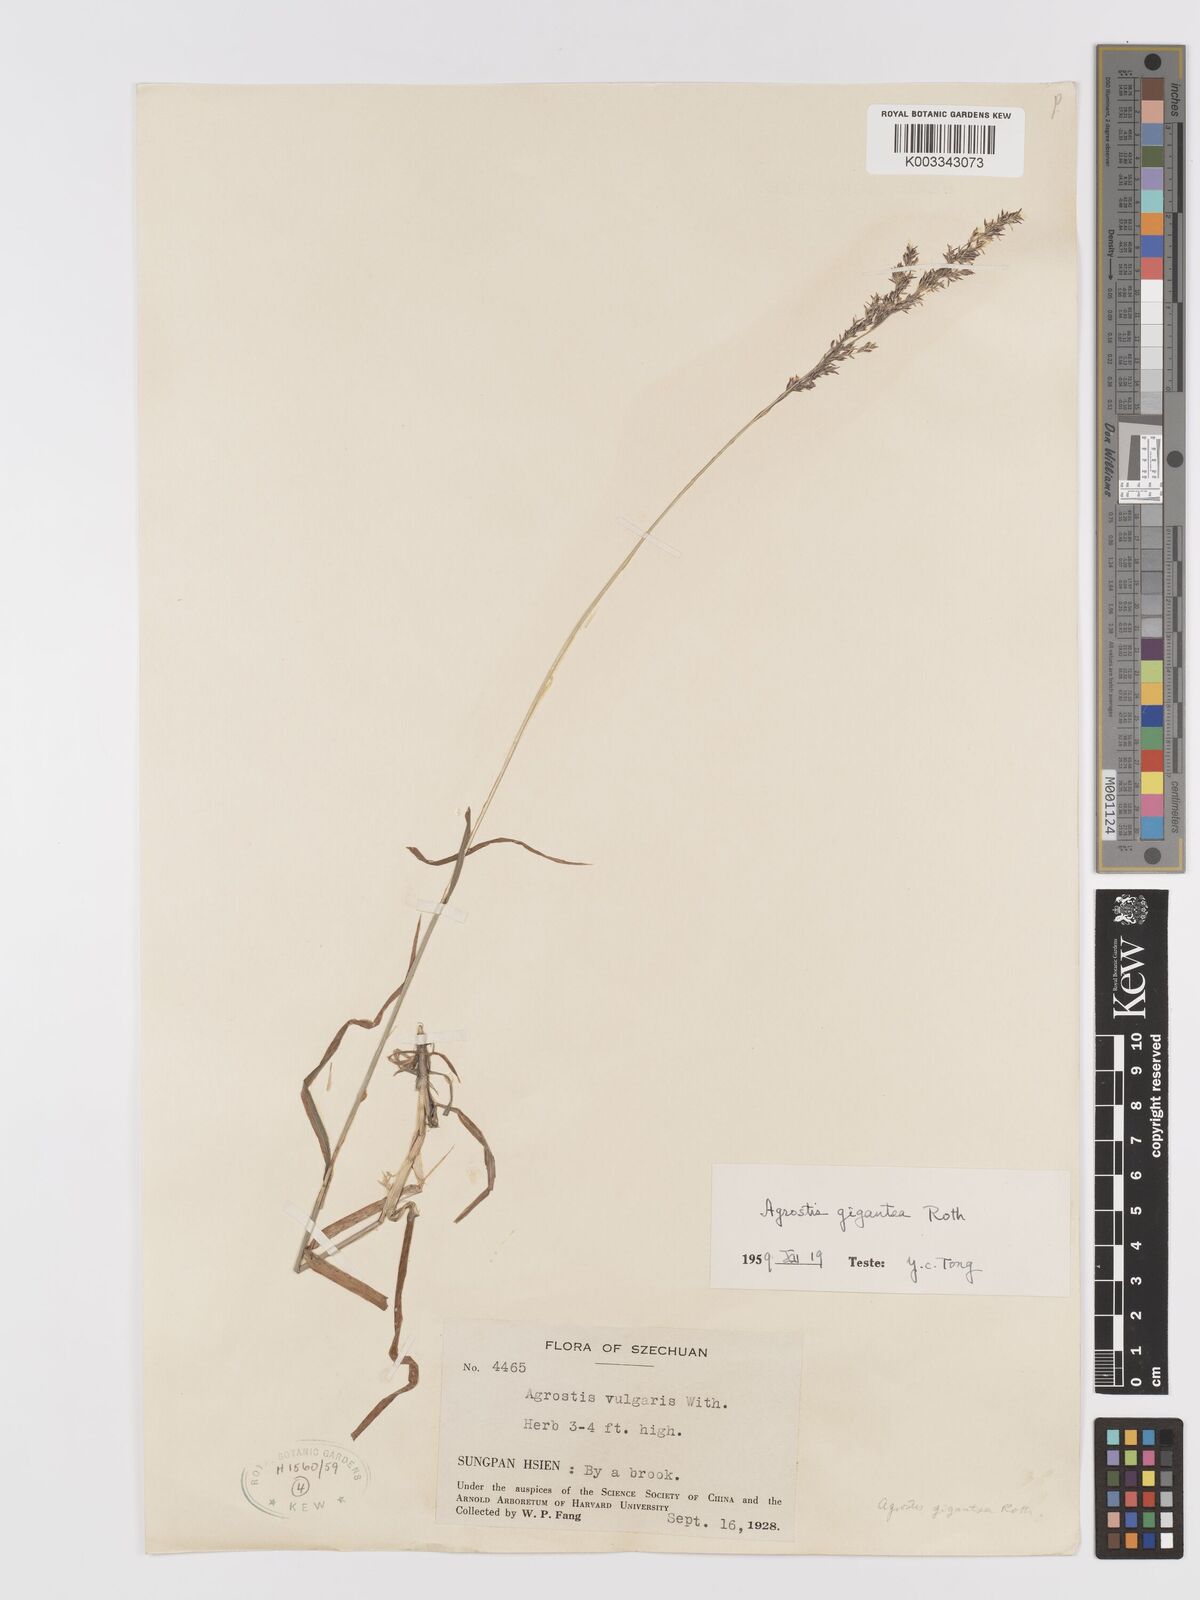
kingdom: Plantae
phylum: Tracheophyta
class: Liliopsida
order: Poales
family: Poaceae
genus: Agrostis
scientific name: Agrostis gigantea
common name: Black bent
